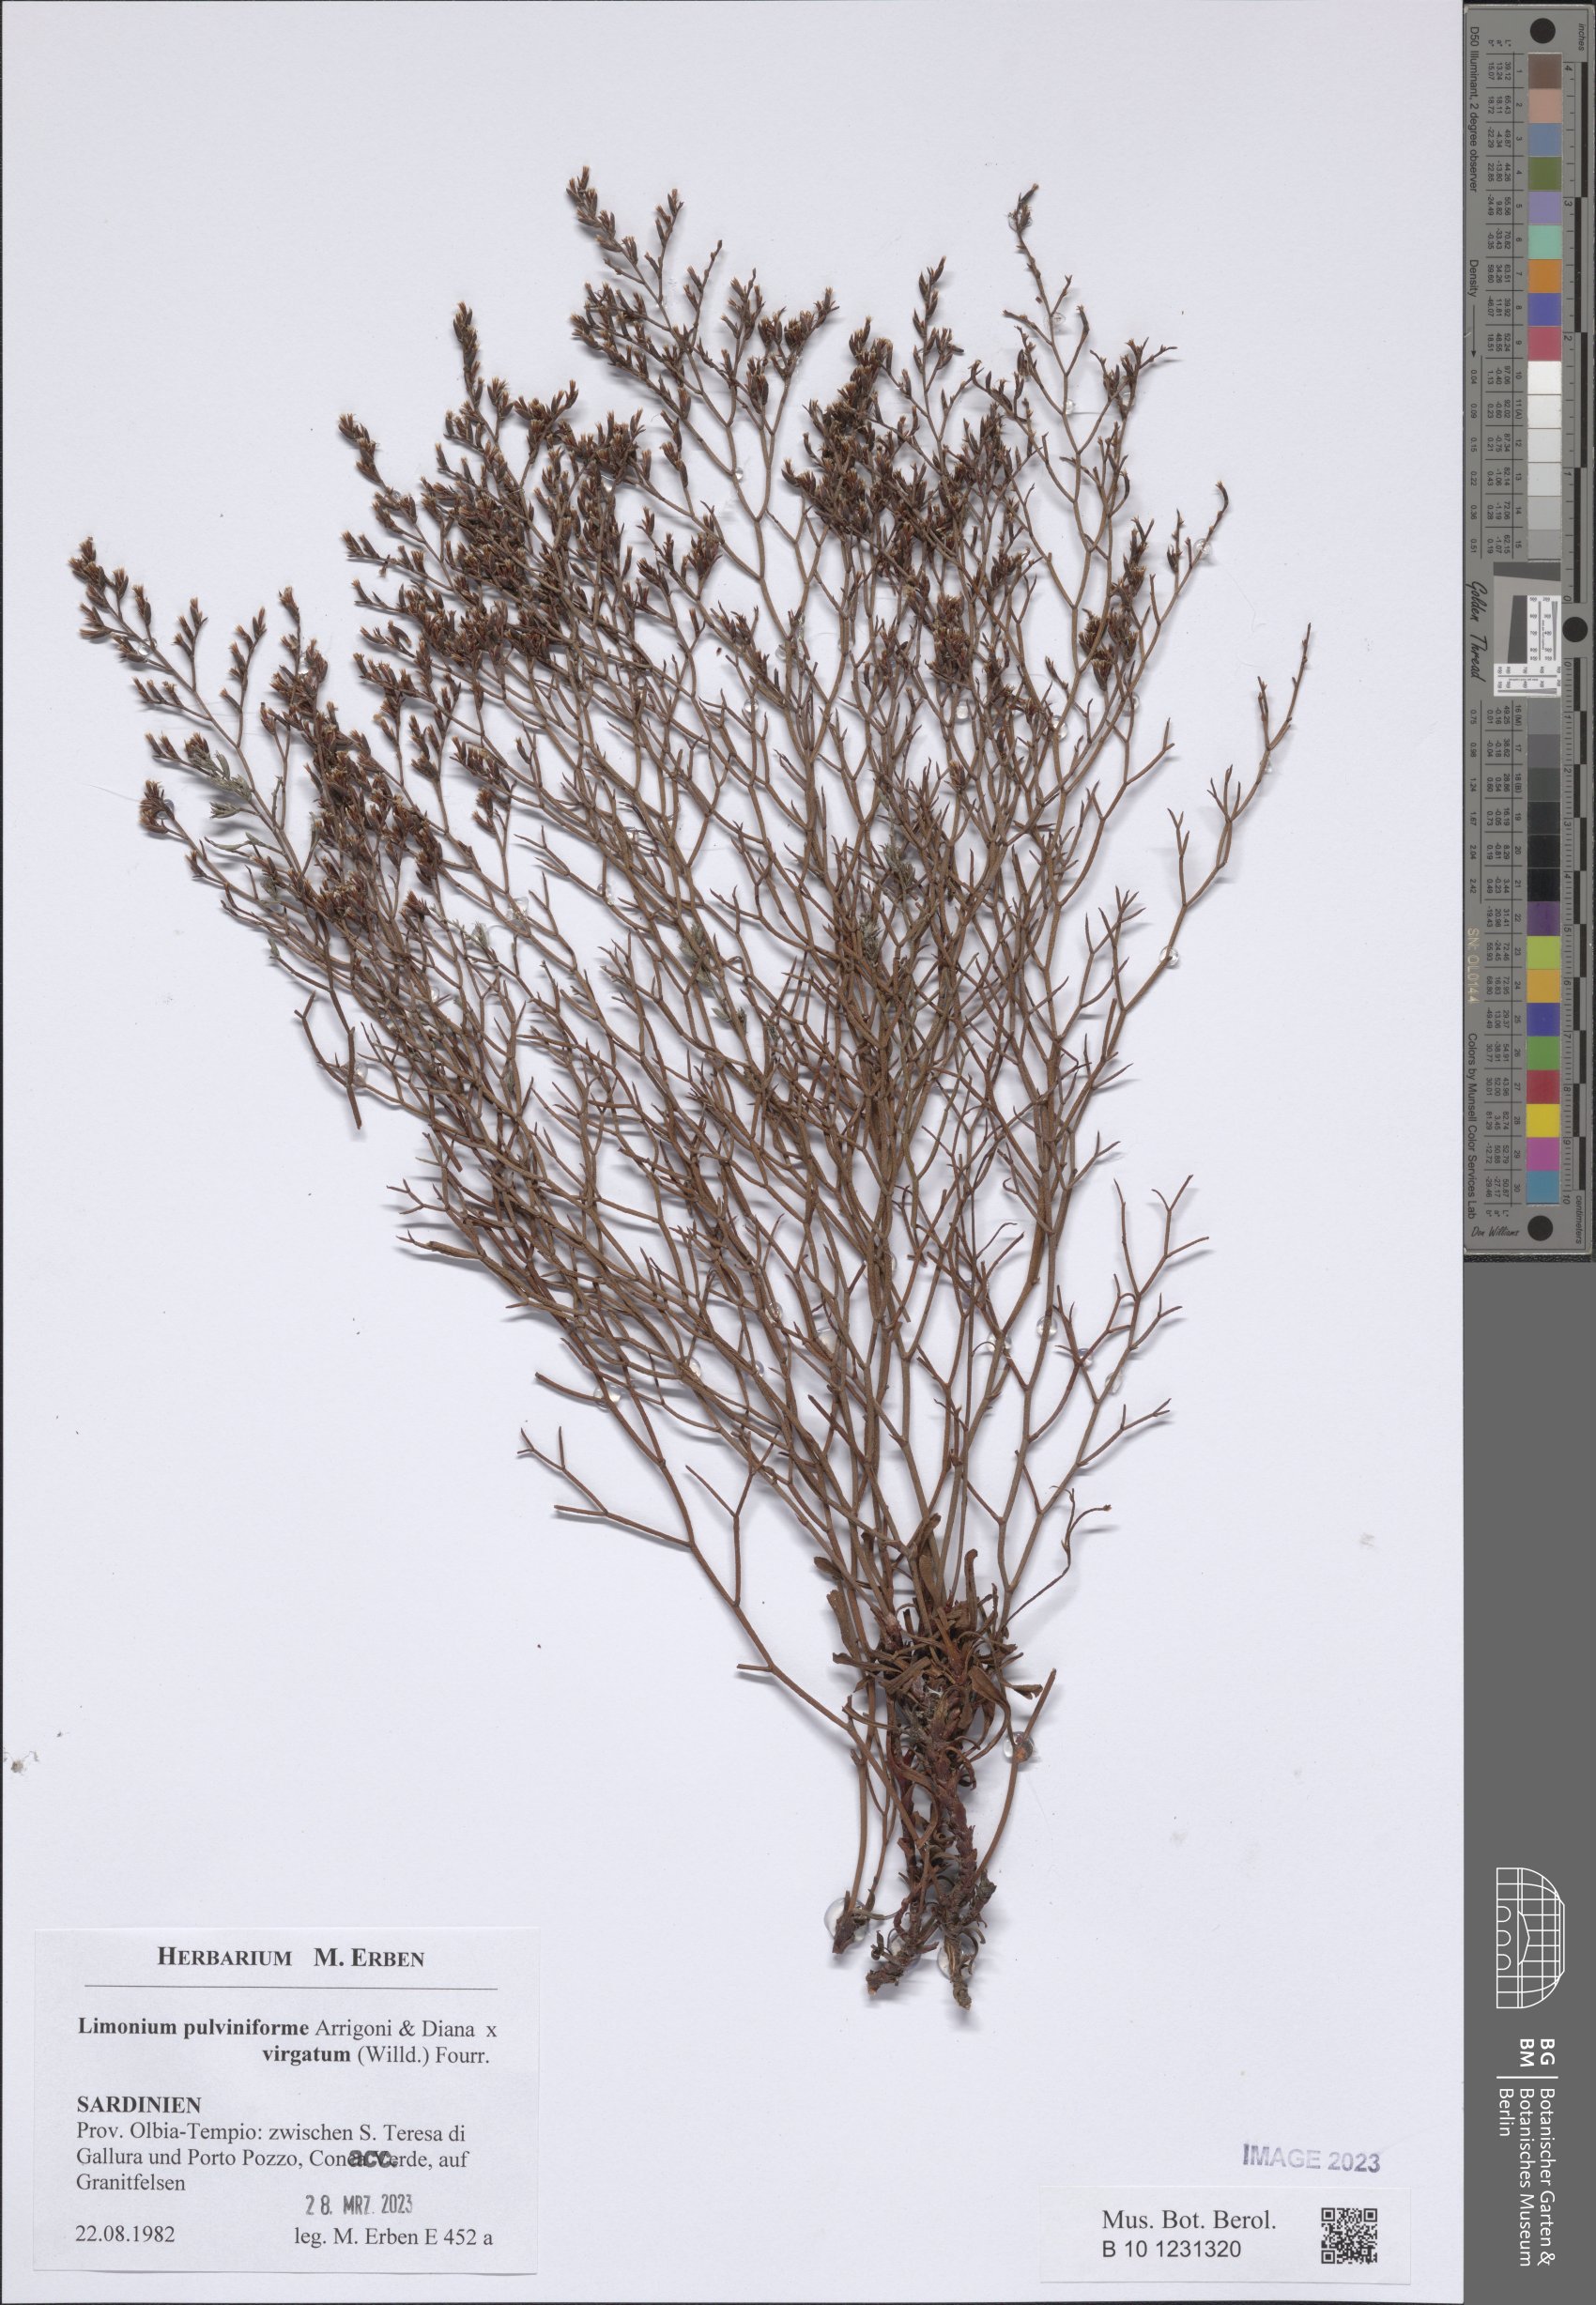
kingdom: Plantae
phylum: Tracheophyta
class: Magnoliopsida
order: Caryophyllales
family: Plumbaginaceae
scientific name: Plumbaginaceae
